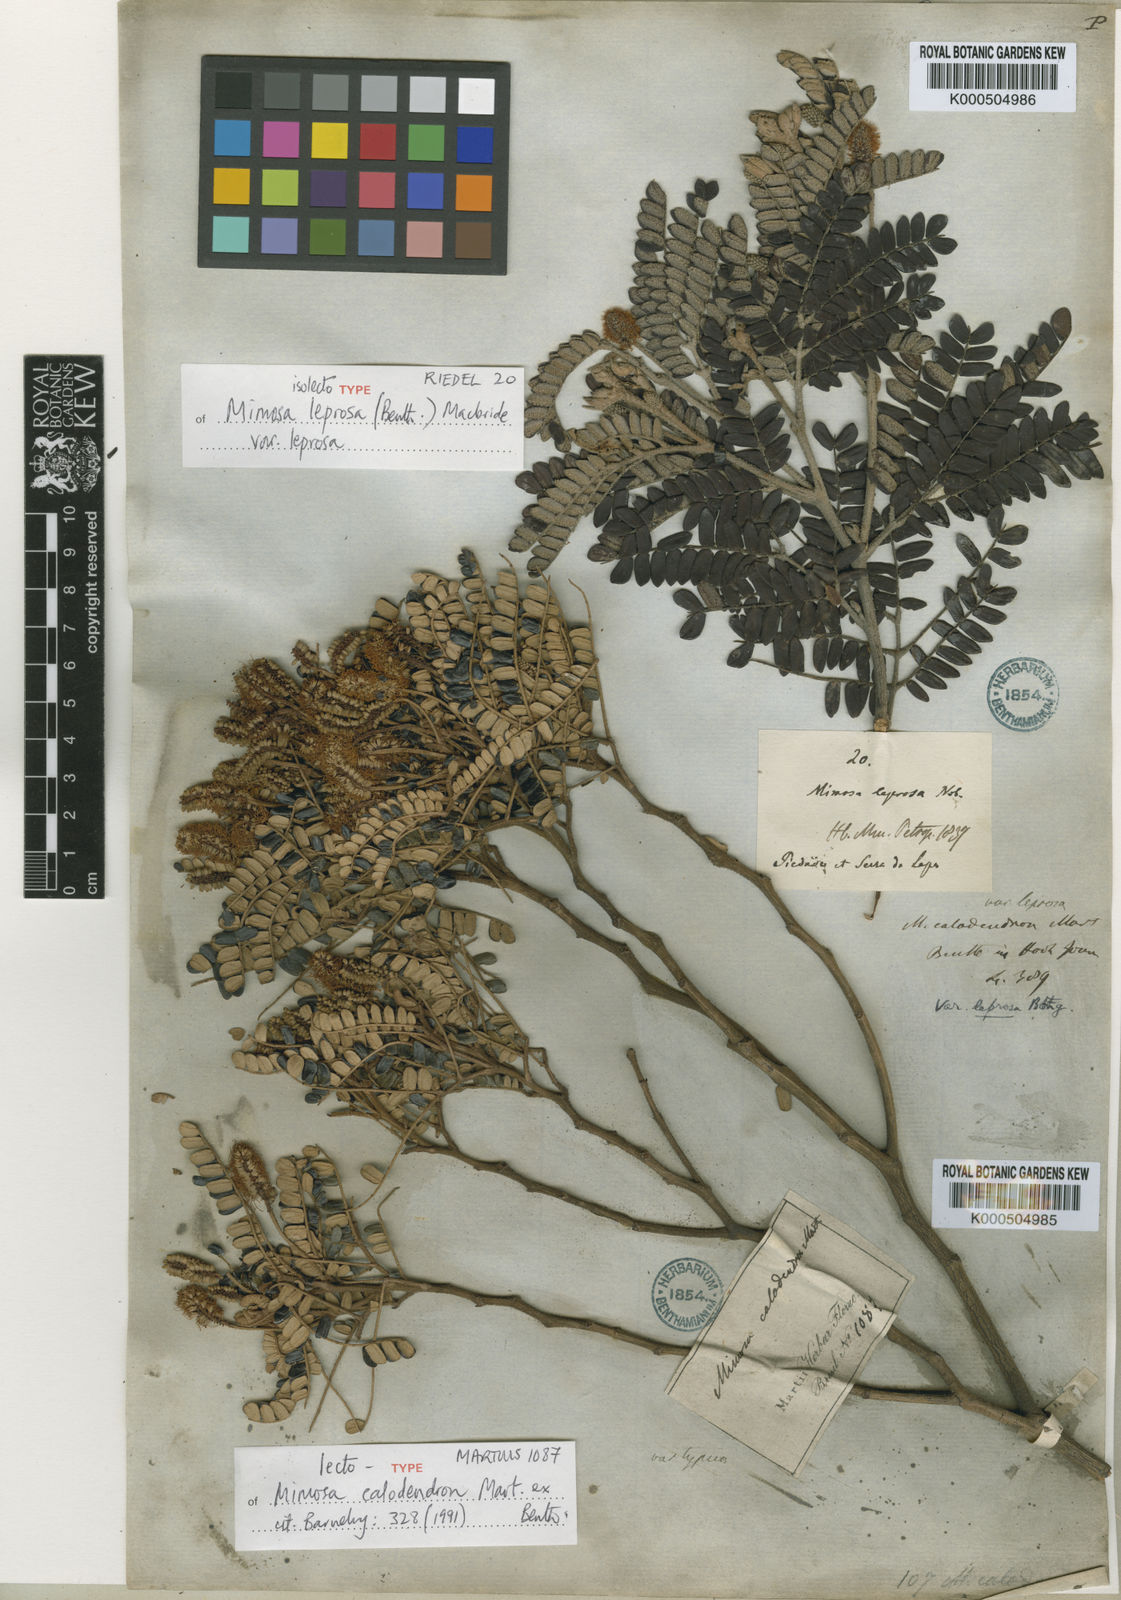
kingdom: Plantae
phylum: Tracheophyta
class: Magnoliopsida
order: Fabales
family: Fabaceae
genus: Mimosa
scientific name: Mimosa calodendron
